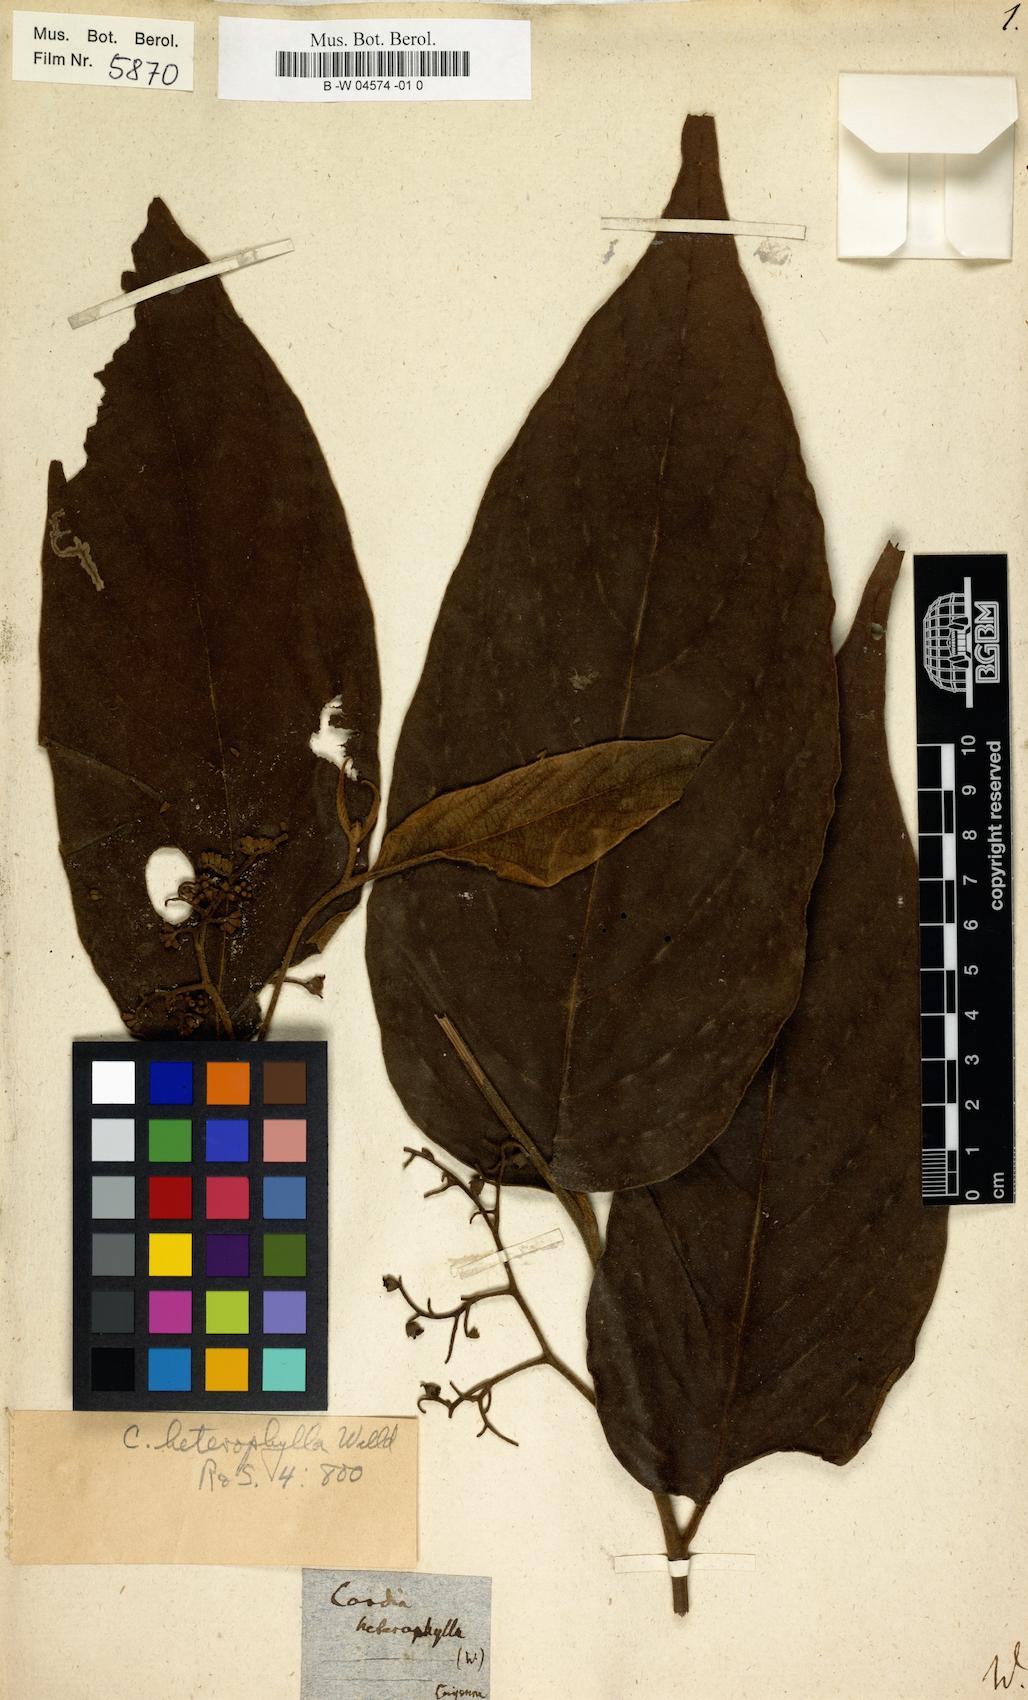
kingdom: Plantae
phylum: Tracheophyta
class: Magnoliopsida
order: Boraginales
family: Cordiaceae
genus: Cordia
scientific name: Cordia toqueve
